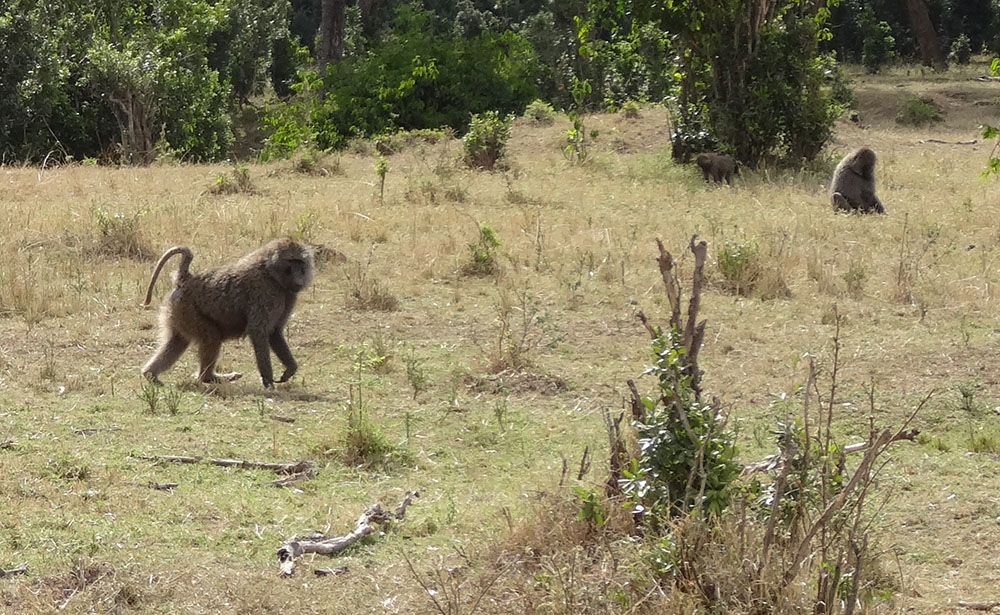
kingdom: Animalia
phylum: Chordata
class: Mammalia
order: Primates
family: Cercopithecidae
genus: Papio
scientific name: Papio anubis
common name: Olive baboon
